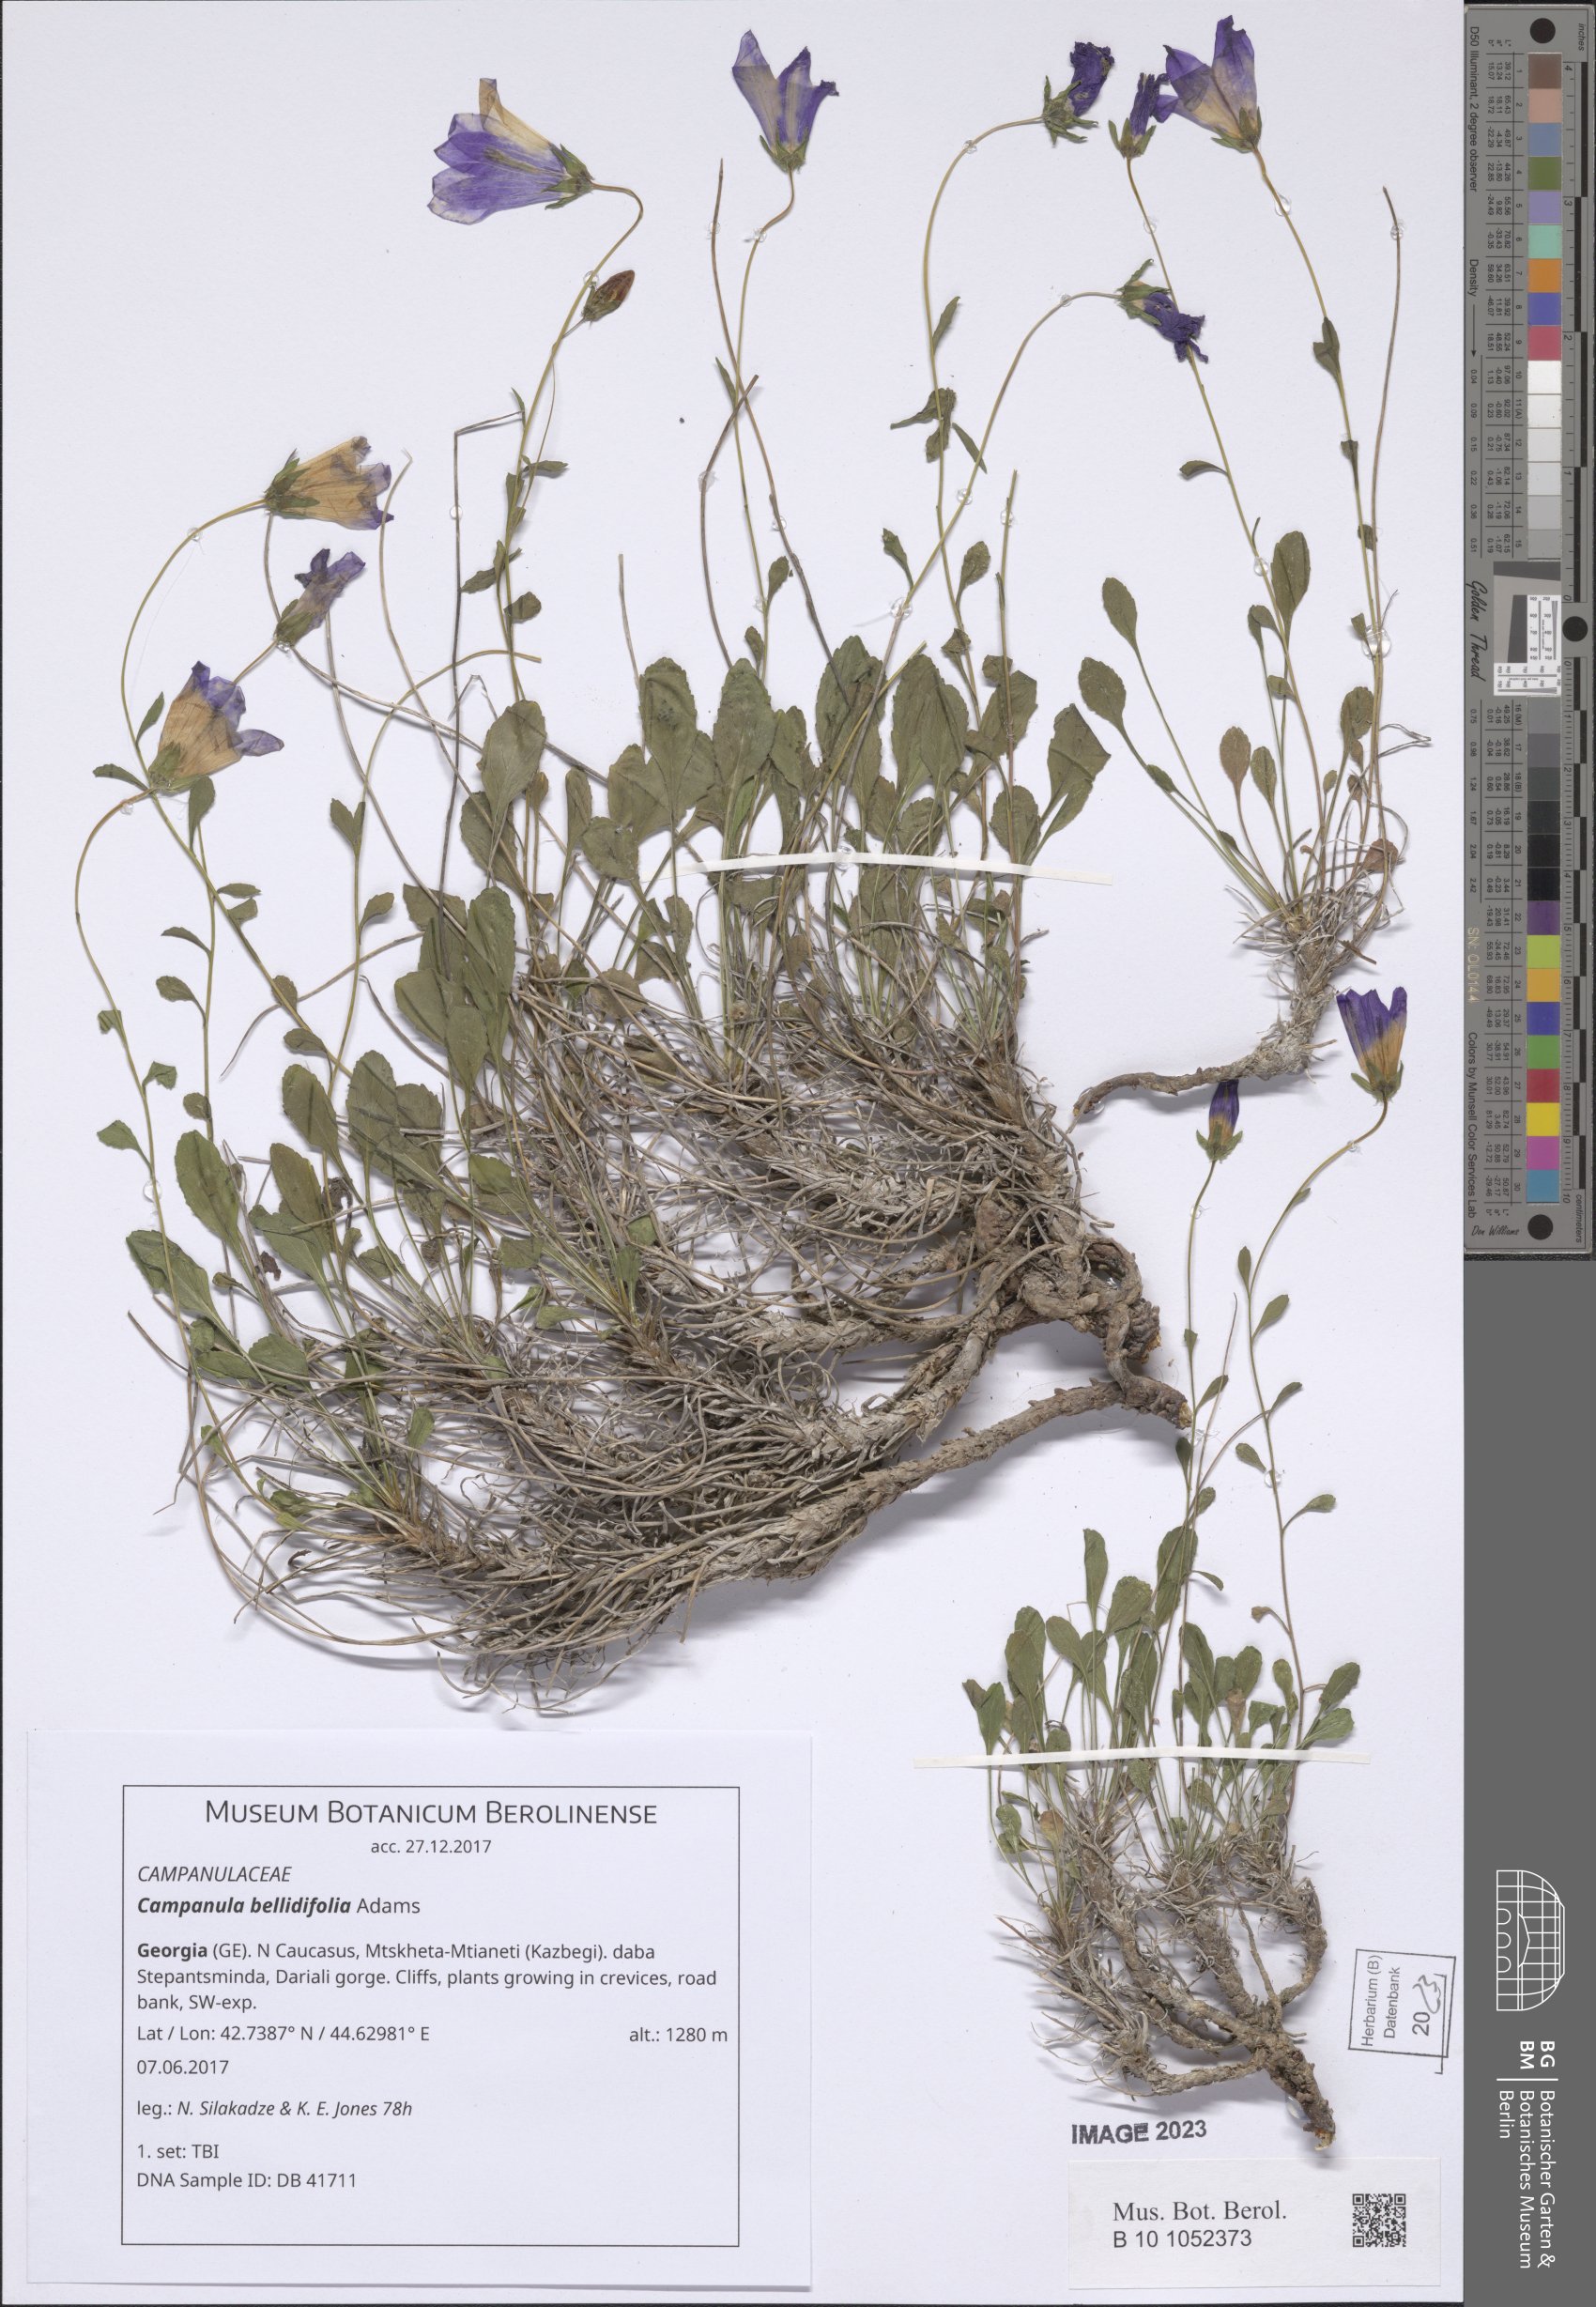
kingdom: Plantae
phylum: Tracheophyta
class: Magnoliopsida
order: Asterales
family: Campanulaceae
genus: Campanula
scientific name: Campanula bellidifolia
